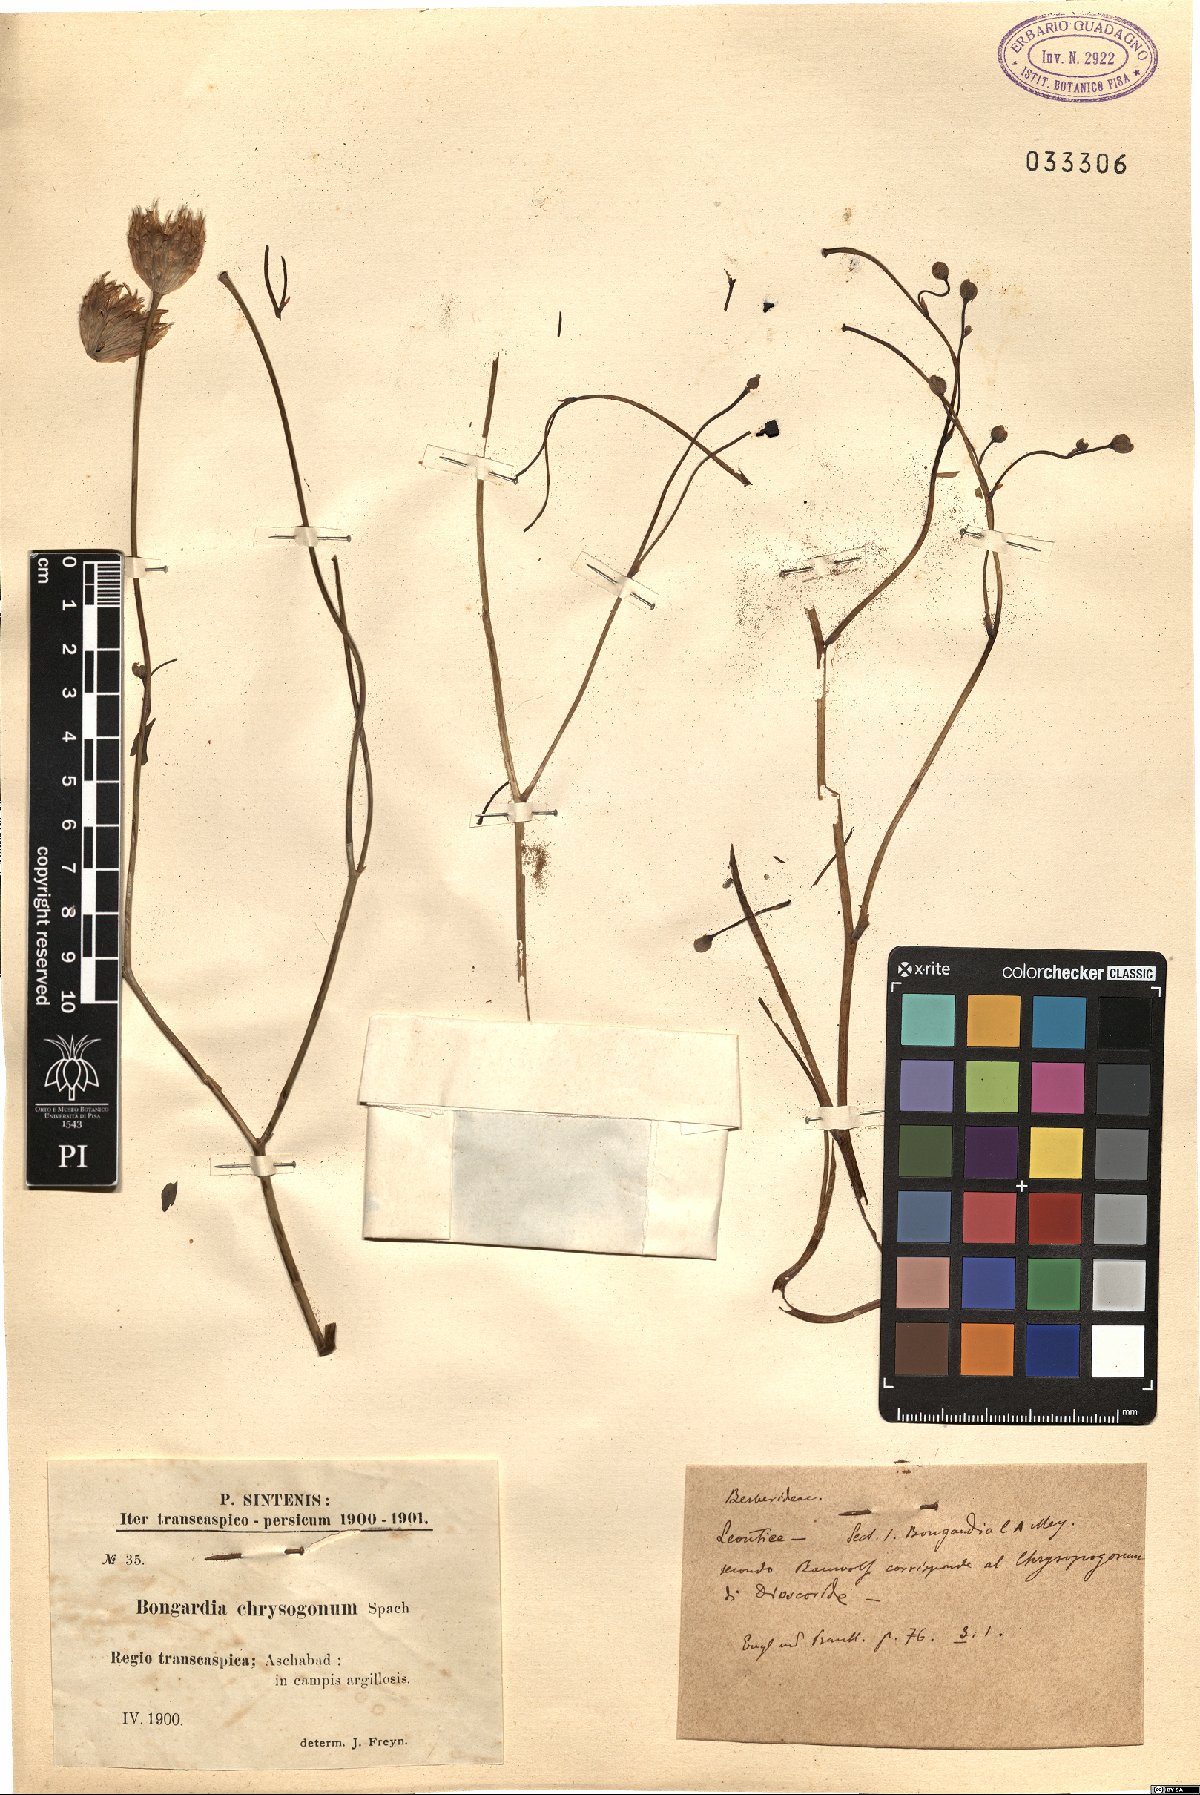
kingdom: Plantae
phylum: Tracheophyta
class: Magnoliopsida
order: Ranunculales
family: Berberidaceae
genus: Bongardia
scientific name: Bongardia chrysogonum
